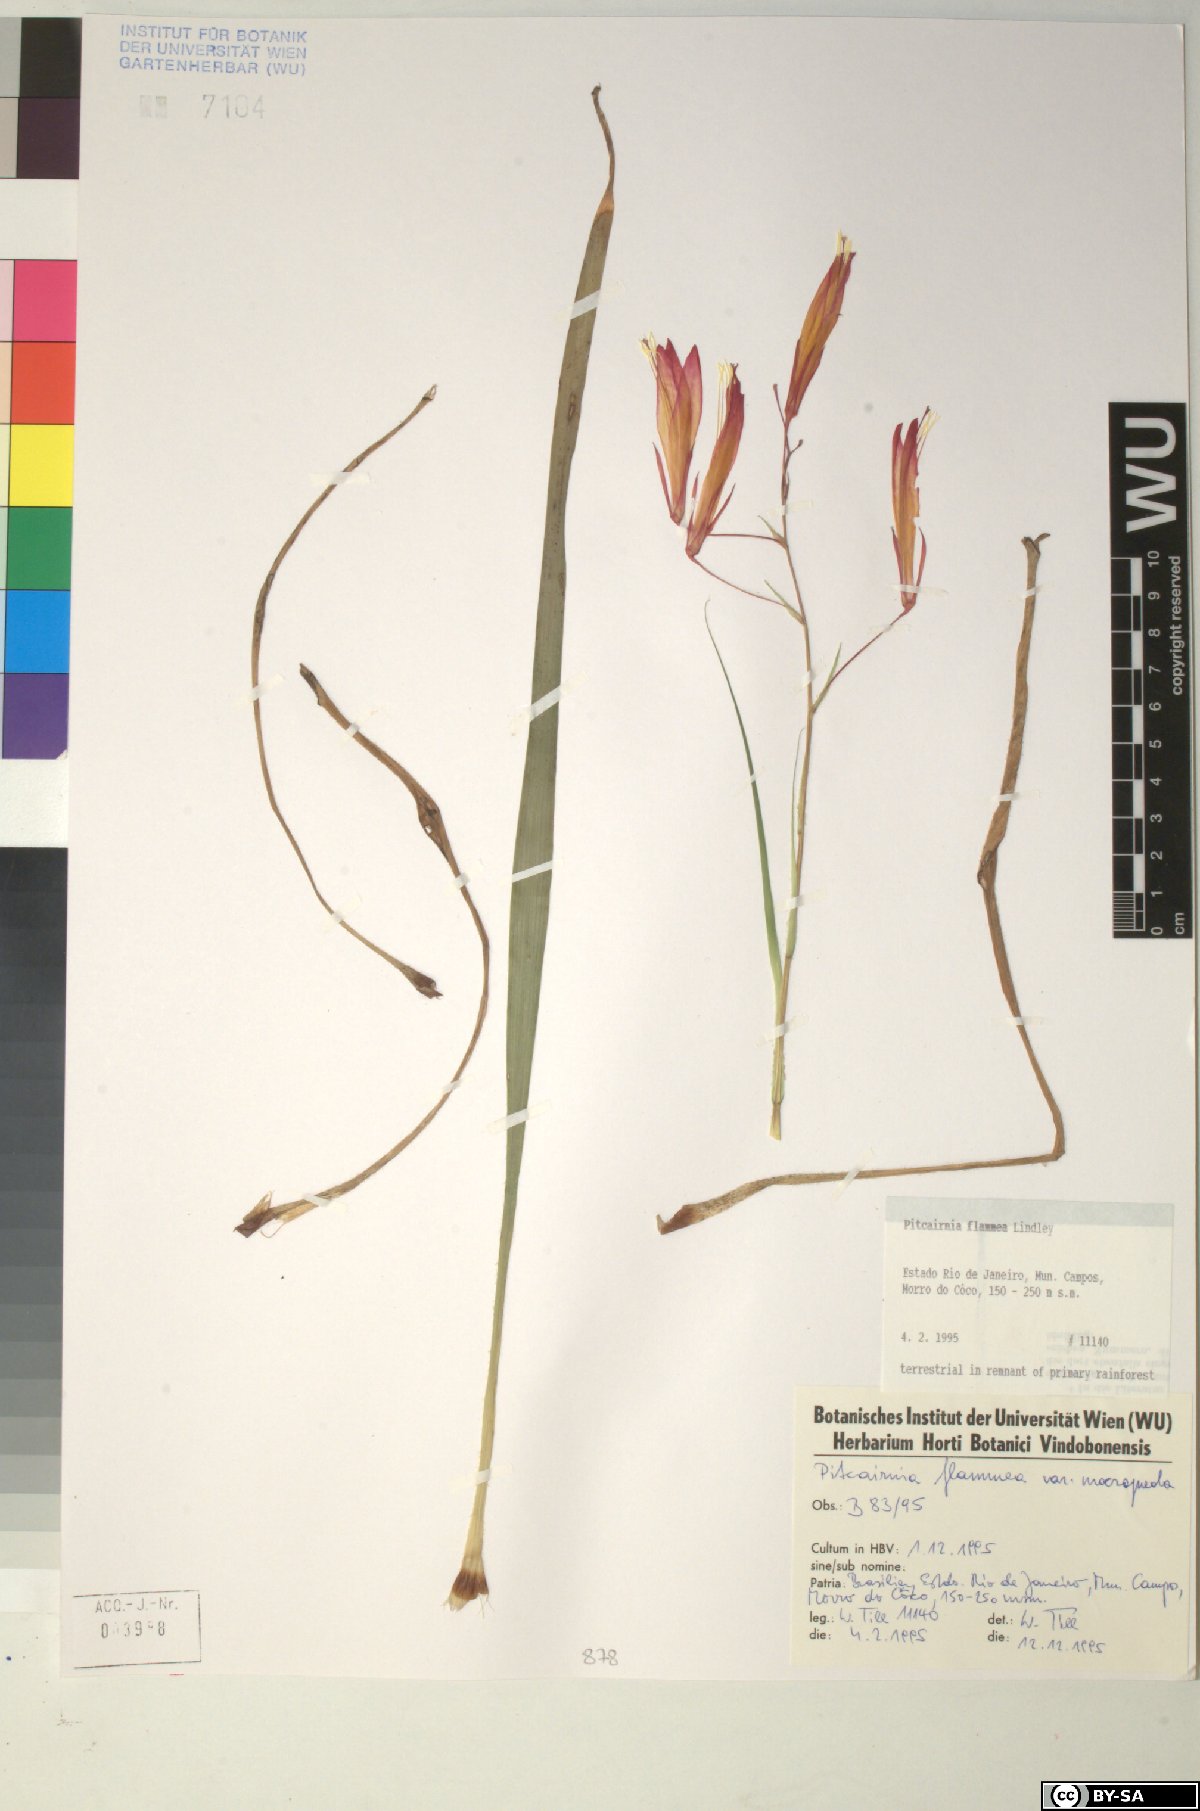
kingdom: Plantae
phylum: Tracheophyta
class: Liliopsida
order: Poales
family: Bromeliaceae
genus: Pitcairnia
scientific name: Pitcairnia flammea
